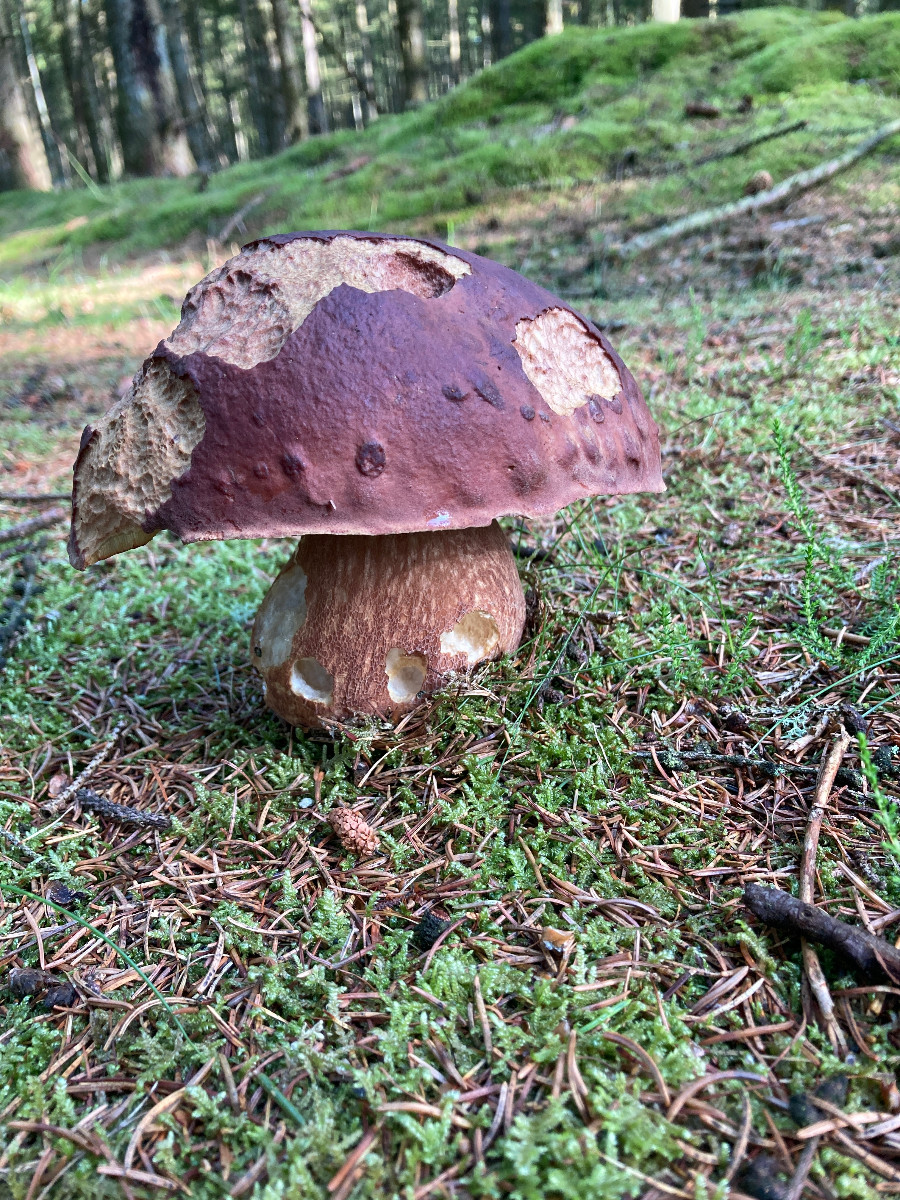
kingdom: Fungi
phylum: Basidiomycota
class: Agaricomycetes
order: Boletales
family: Boletaceae
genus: Boletus
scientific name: Boletus pinophilus
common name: rødbrun rørhat
